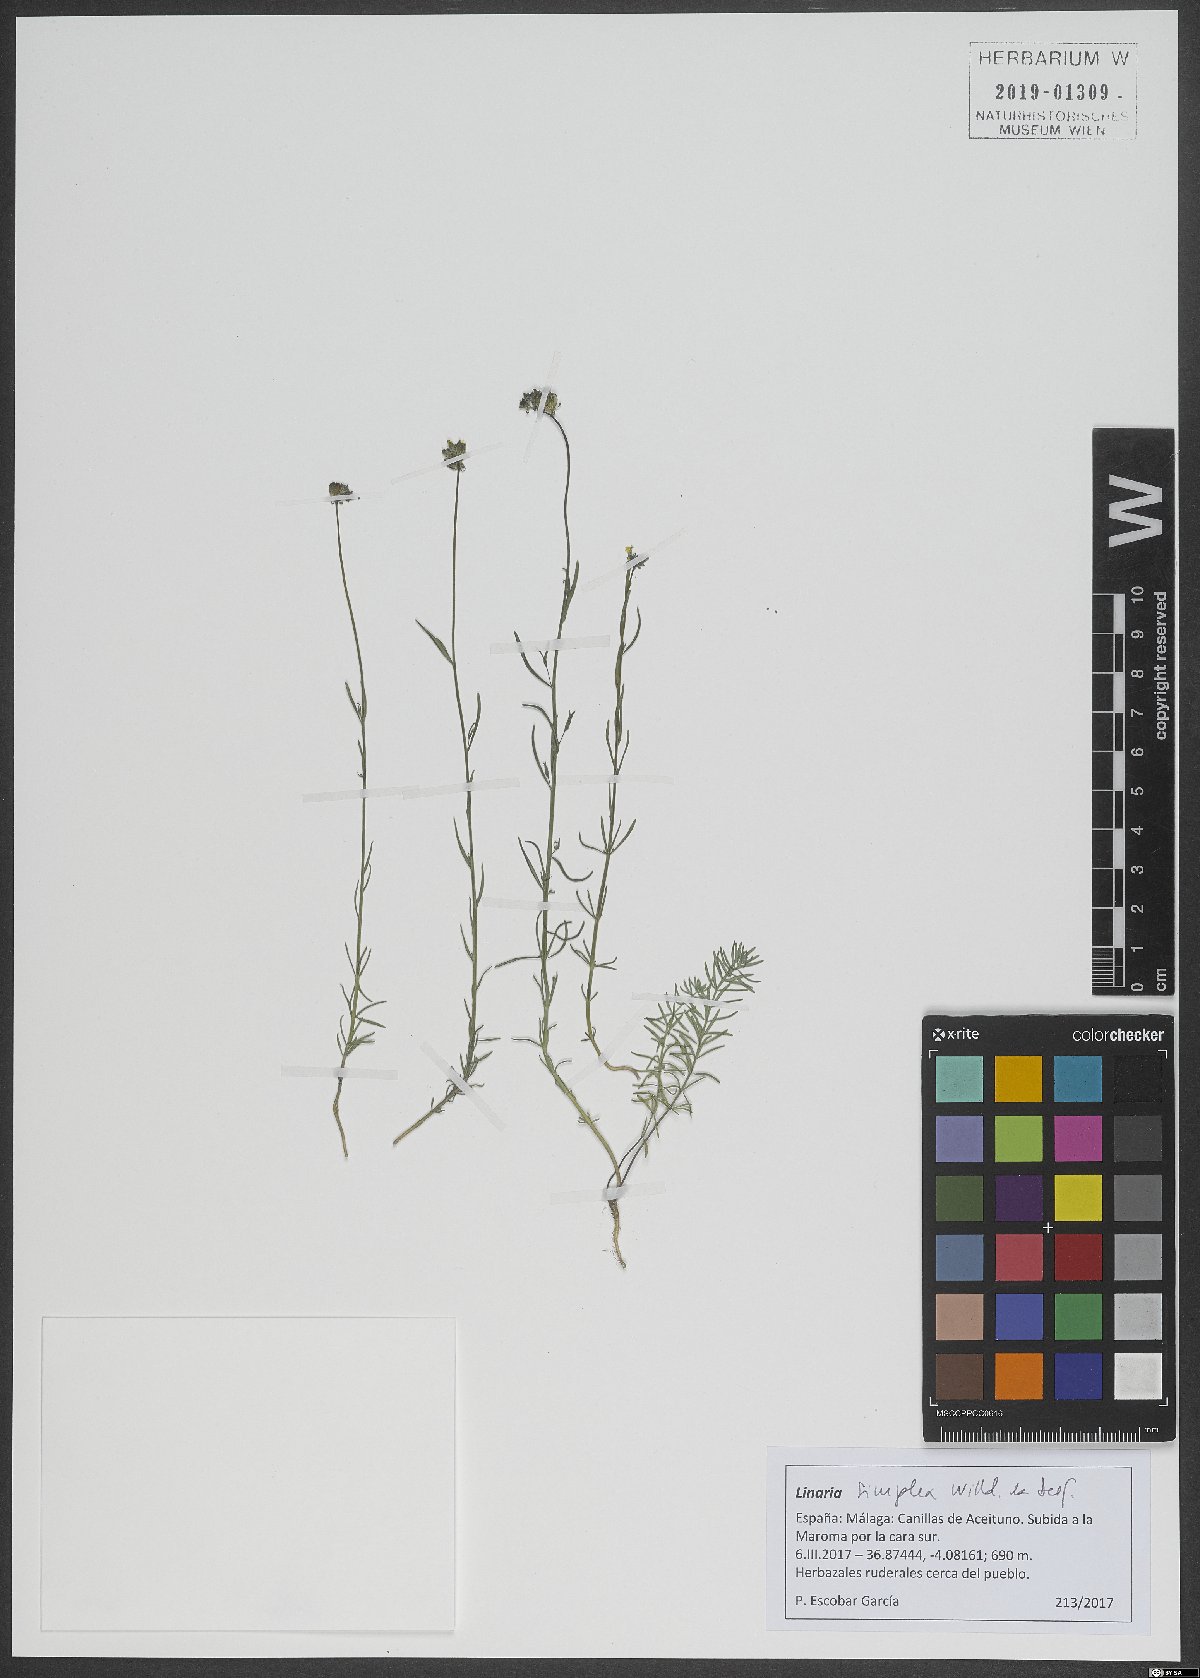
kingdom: Plantae
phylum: Tracheophyta
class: Magnoliopsida
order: Lamiales
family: Plantaginaceae
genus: Linaria
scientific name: Linaria simplex
